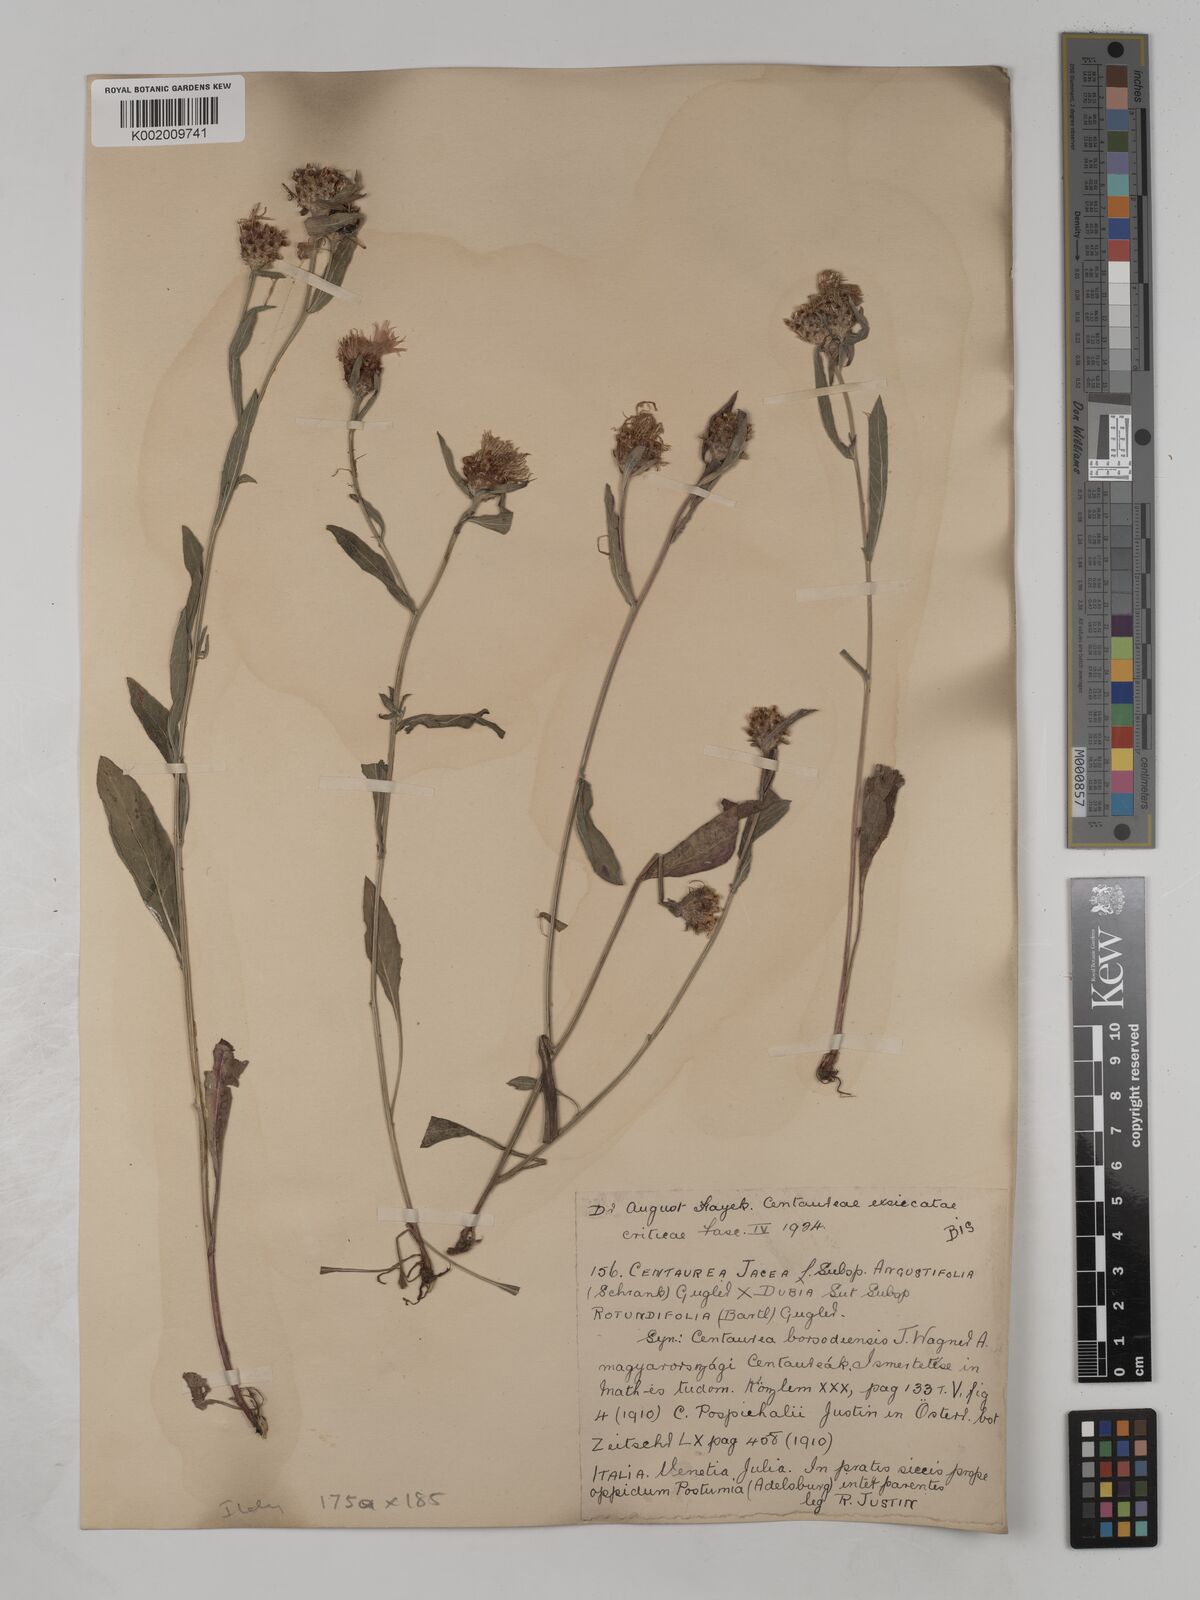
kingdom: Plantae
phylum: Tracheophyta
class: Magnoliopsida
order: Asterales
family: Asteraceae
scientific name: Asteraceae
